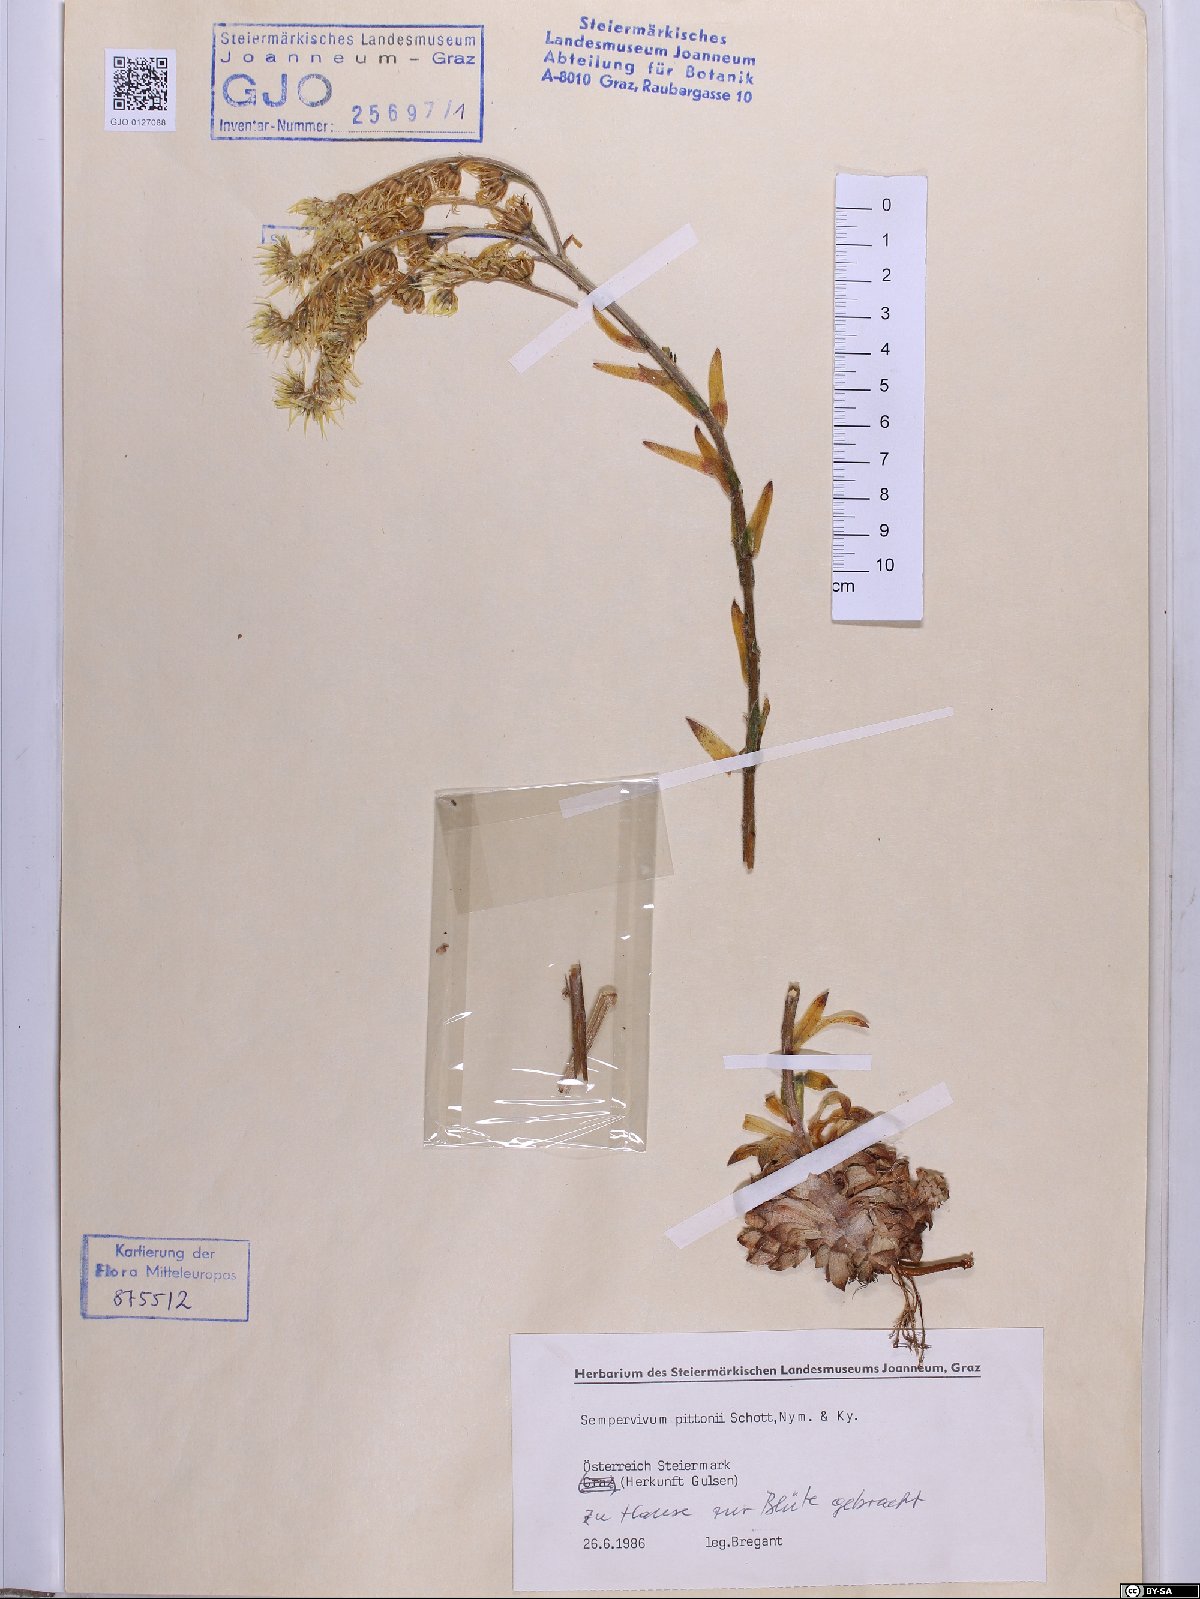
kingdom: Plantae
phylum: Tracheophyta
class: Magnoliopsida
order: Saxifragales
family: Crassulaceae
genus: Sempervivum
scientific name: Sempervivum pittonii
